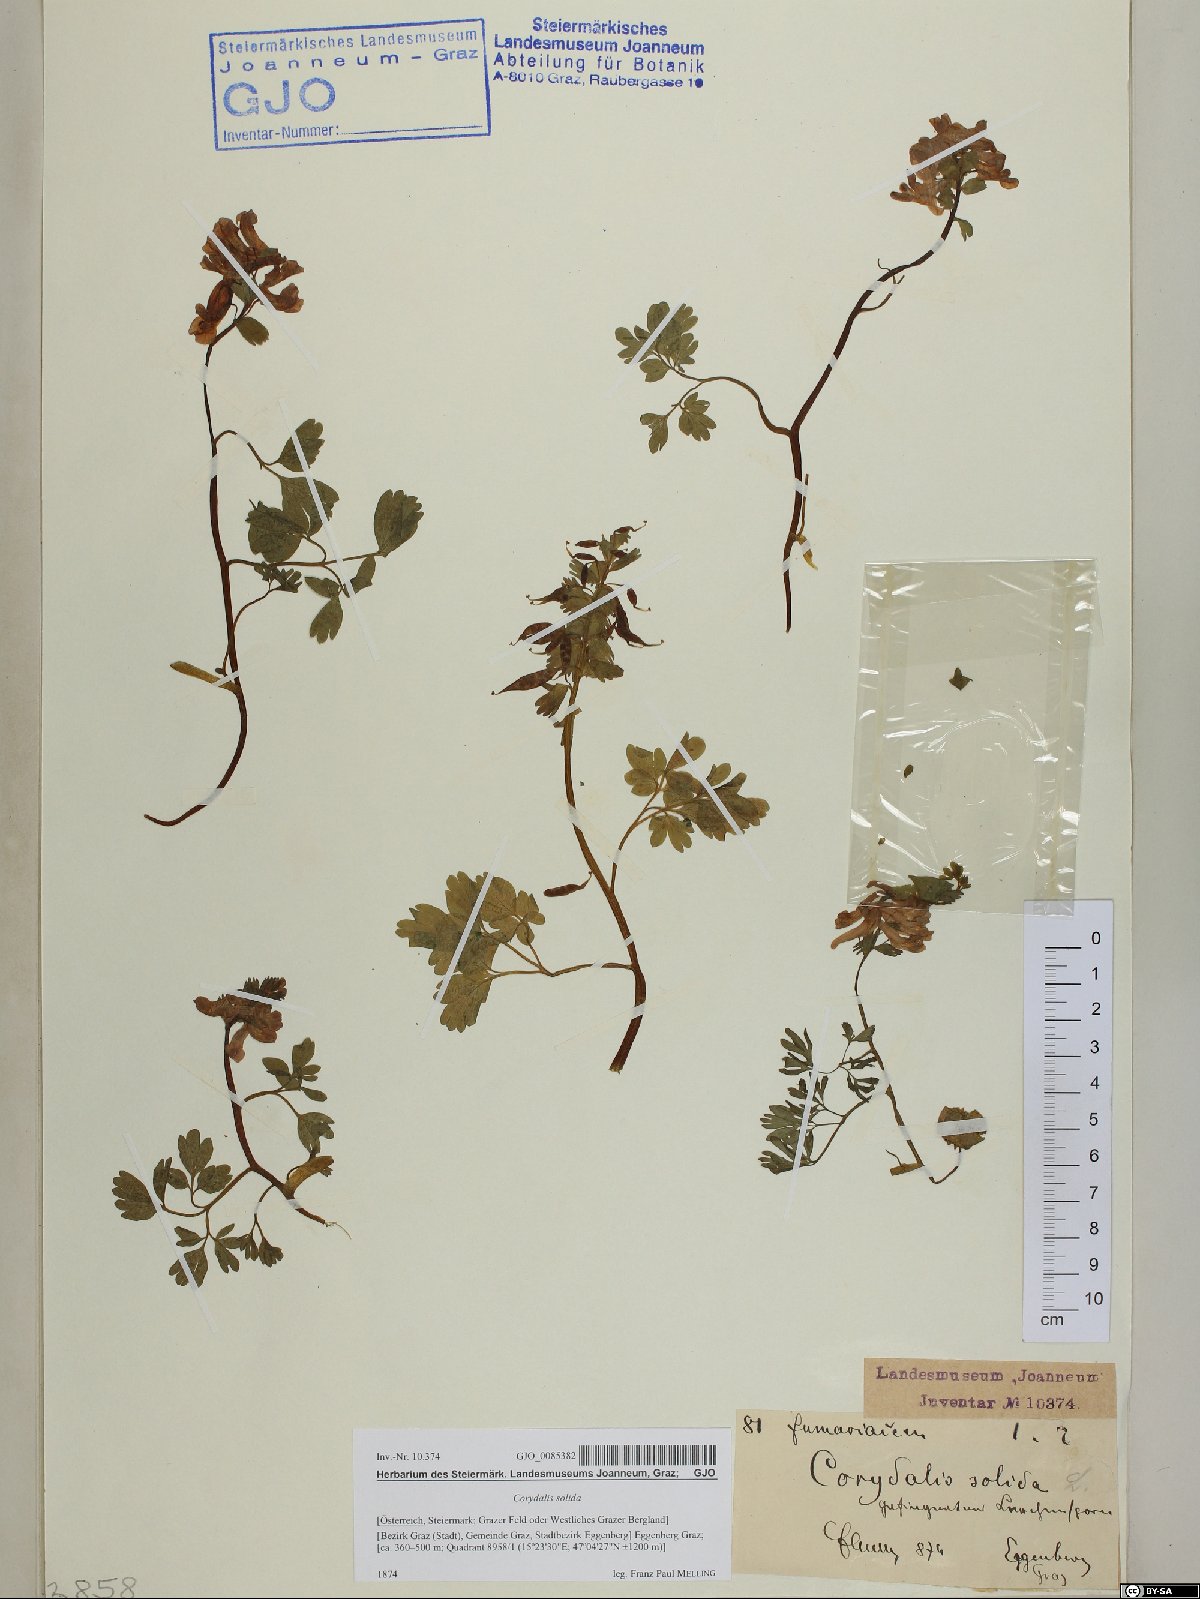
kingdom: Plantae
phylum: Tracheophyta
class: Magnoliopsida
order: Ranunculales
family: Papaveraceae
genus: Corydalis
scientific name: Corydalis solida
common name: Bird-in-a-bush
